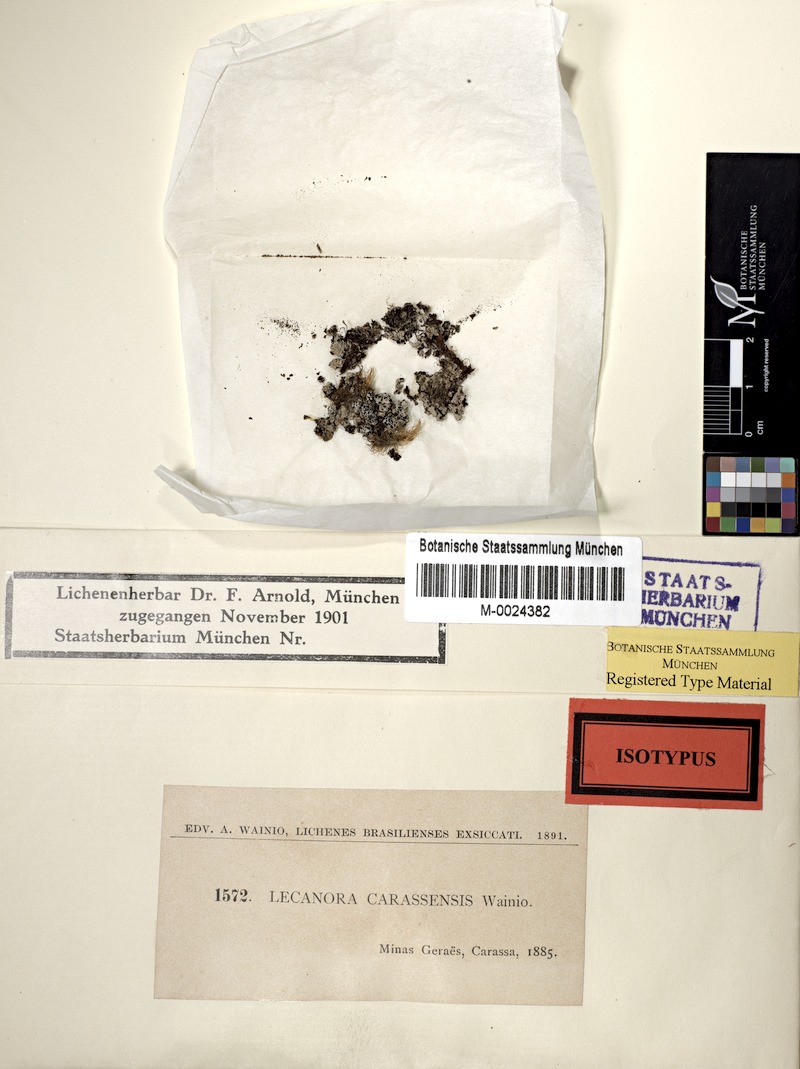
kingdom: Fungi
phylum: Ascomycota
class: Lecanoromycetes
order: Lecanorales
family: Lecanoraceae
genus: Lecanora
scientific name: Lecanora
